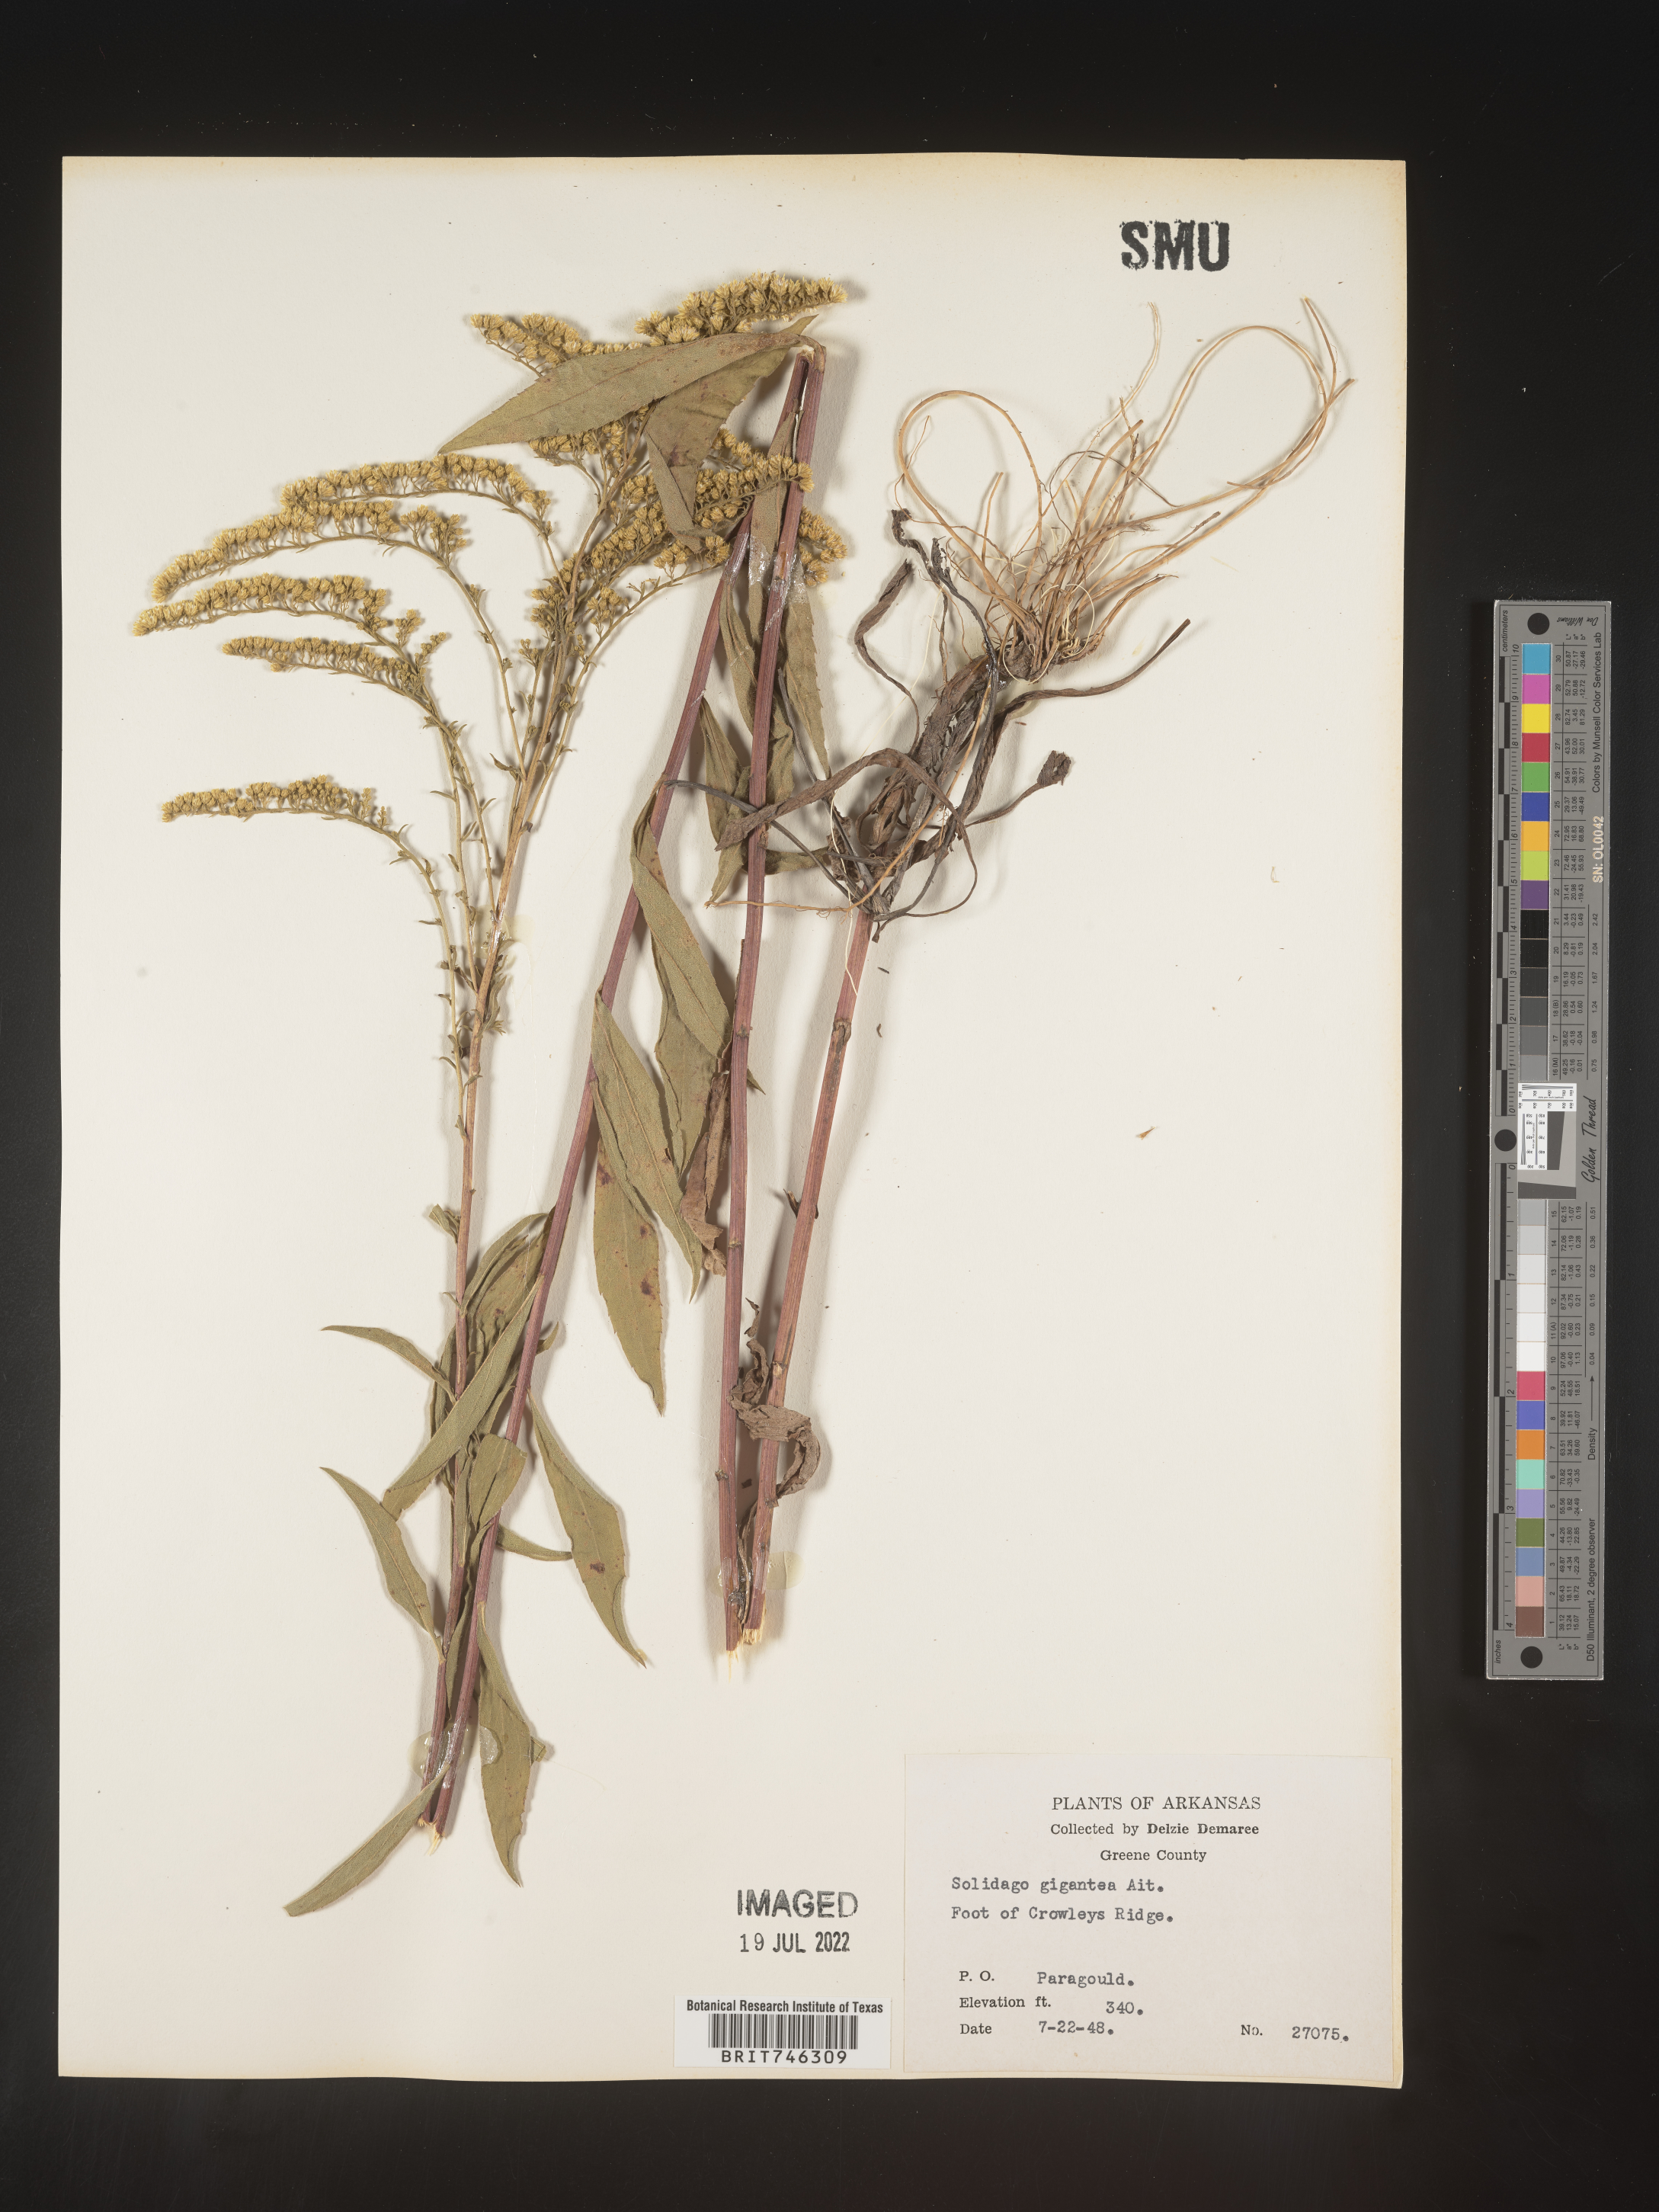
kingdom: Plantae
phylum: Tracheophyta
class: Magnoliopsida
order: Asterales
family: Asteraceae
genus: Solidago
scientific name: Solidago gigantea
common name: Giant goldenrod
